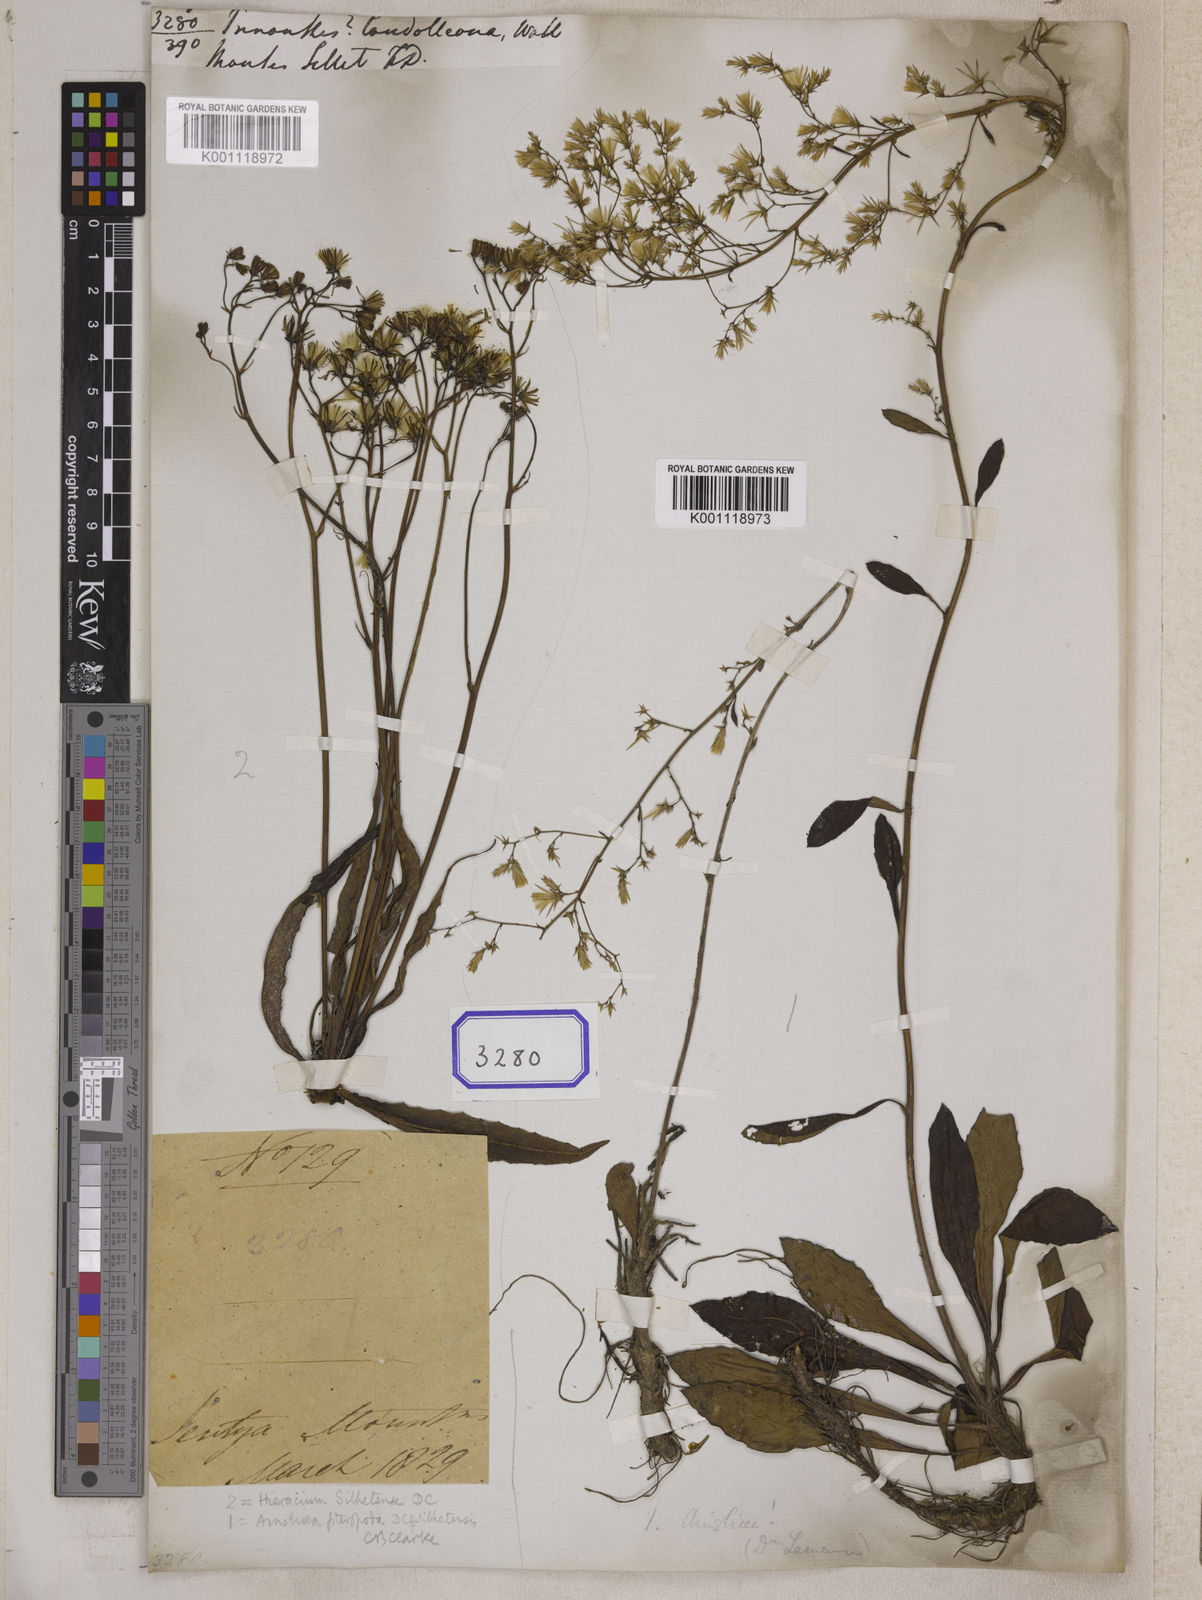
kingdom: Plantae
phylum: Tracheophyta
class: Magnoliopsida
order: Asterales
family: Asteraceae
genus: Prenanthes
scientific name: Prenanthes candolleana
